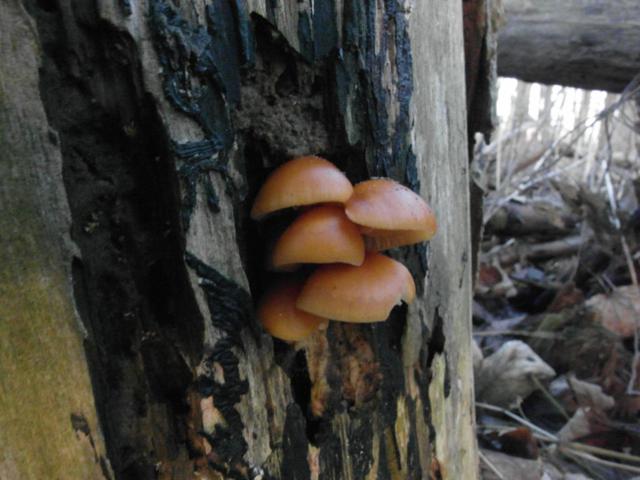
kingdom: Fungi
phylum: Basidiomycota
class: Agaricomycetes
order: Agaricales
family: Physalacriaceae
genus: Flammulina
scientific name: Flammulina velutipes
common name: gul fløjlsfod
